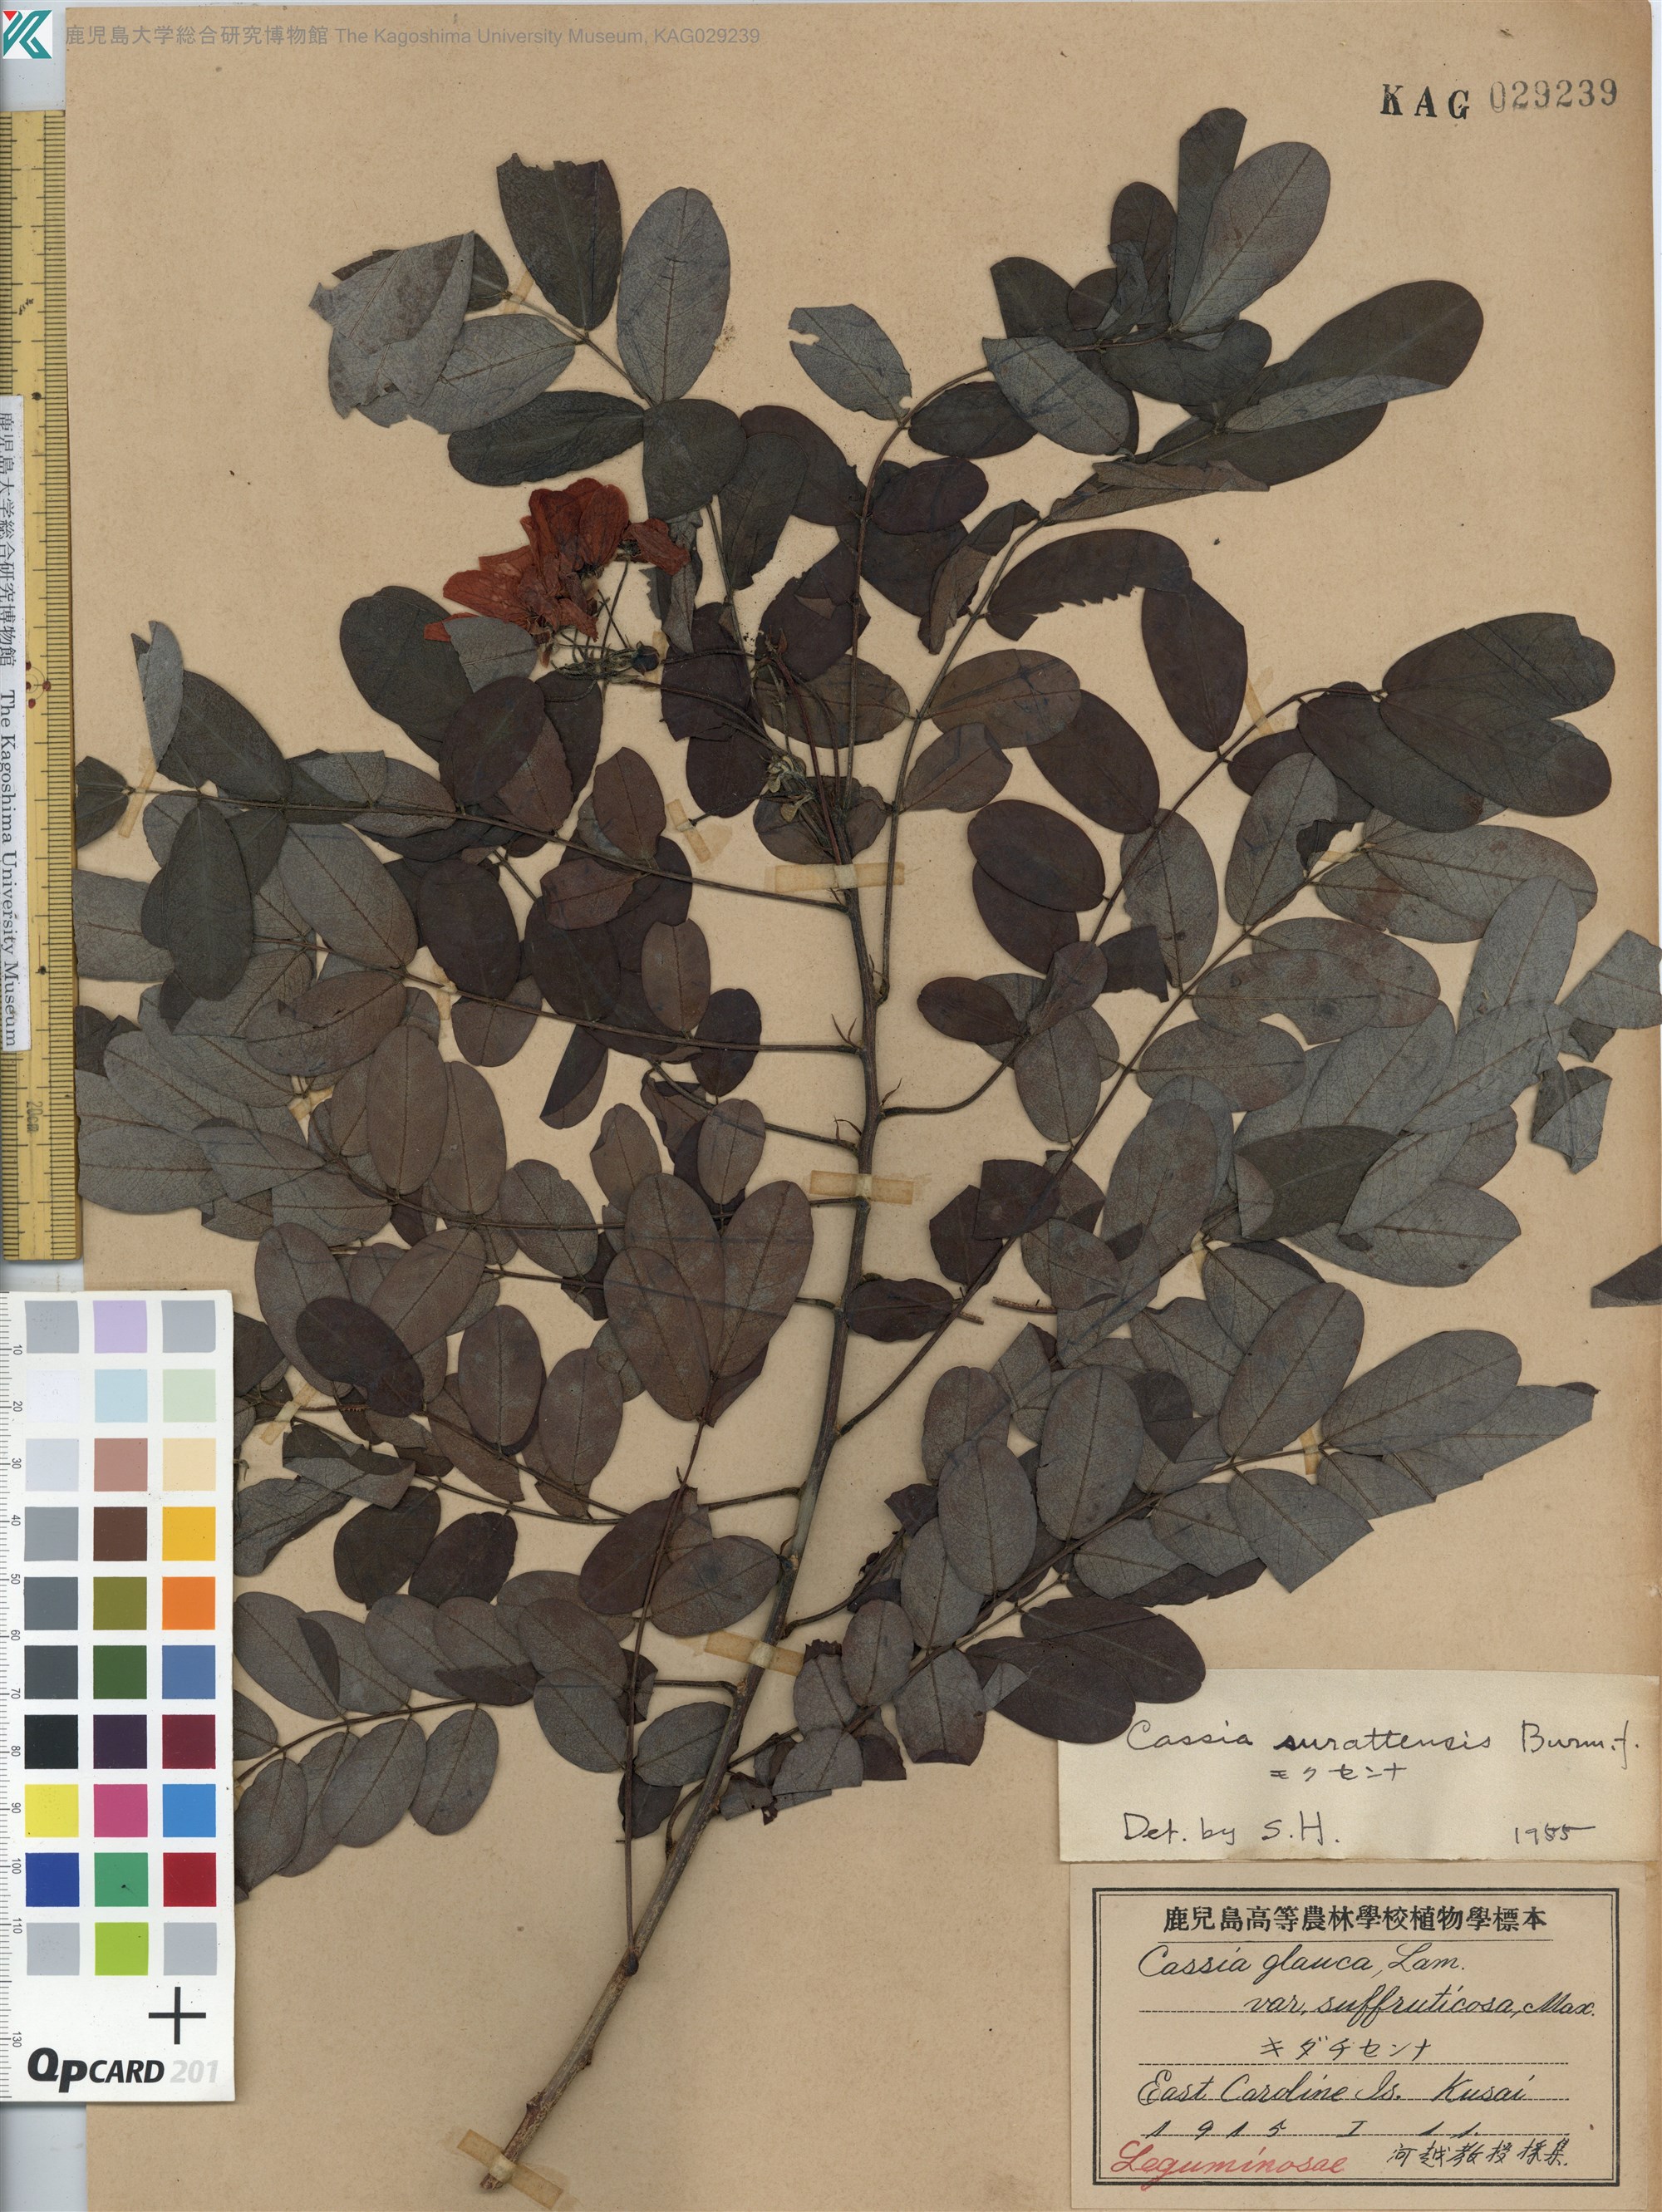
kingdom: Plantae
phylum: Tracheophyta
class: Magnoliopsida
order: Fabales
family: Fabaceae
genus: Senna
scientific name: Senna surattensis
